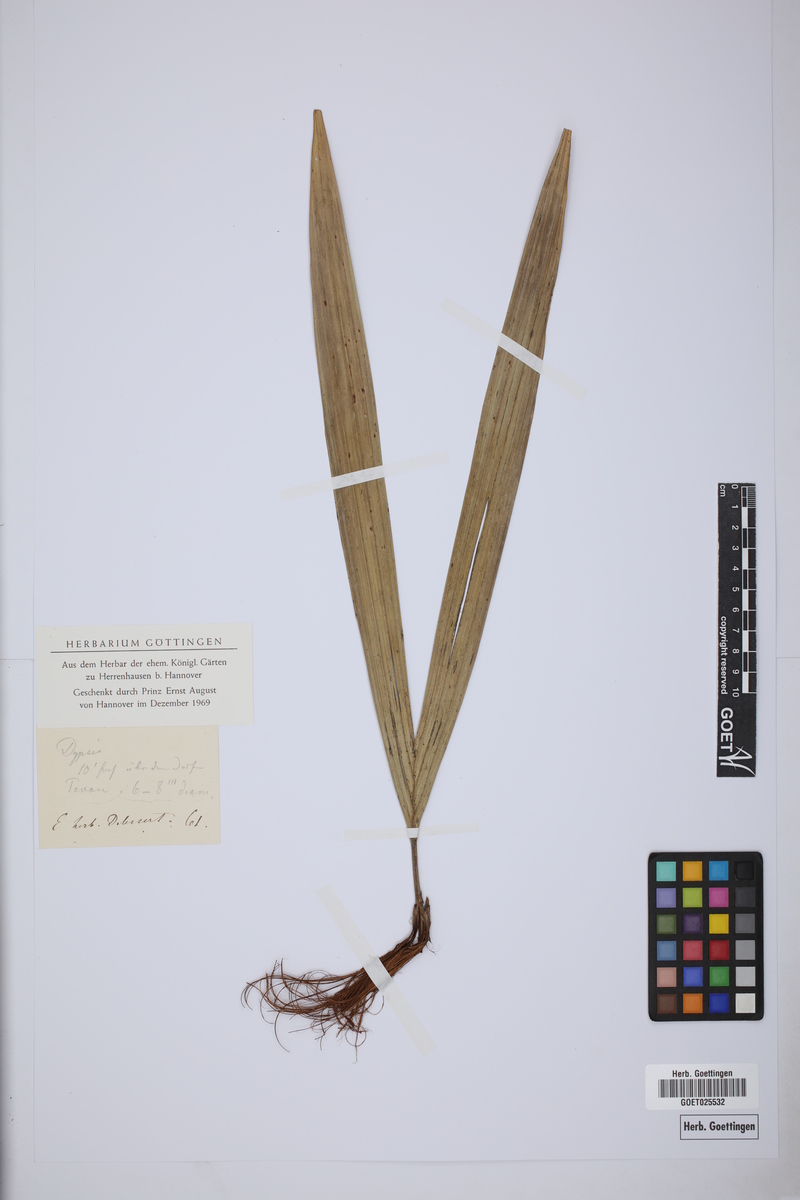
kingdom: Plantae
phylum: Tracheophyta
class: Liliopsida
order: Arecales
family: Arecaceae
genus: Dypsis
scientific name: Dypsis
